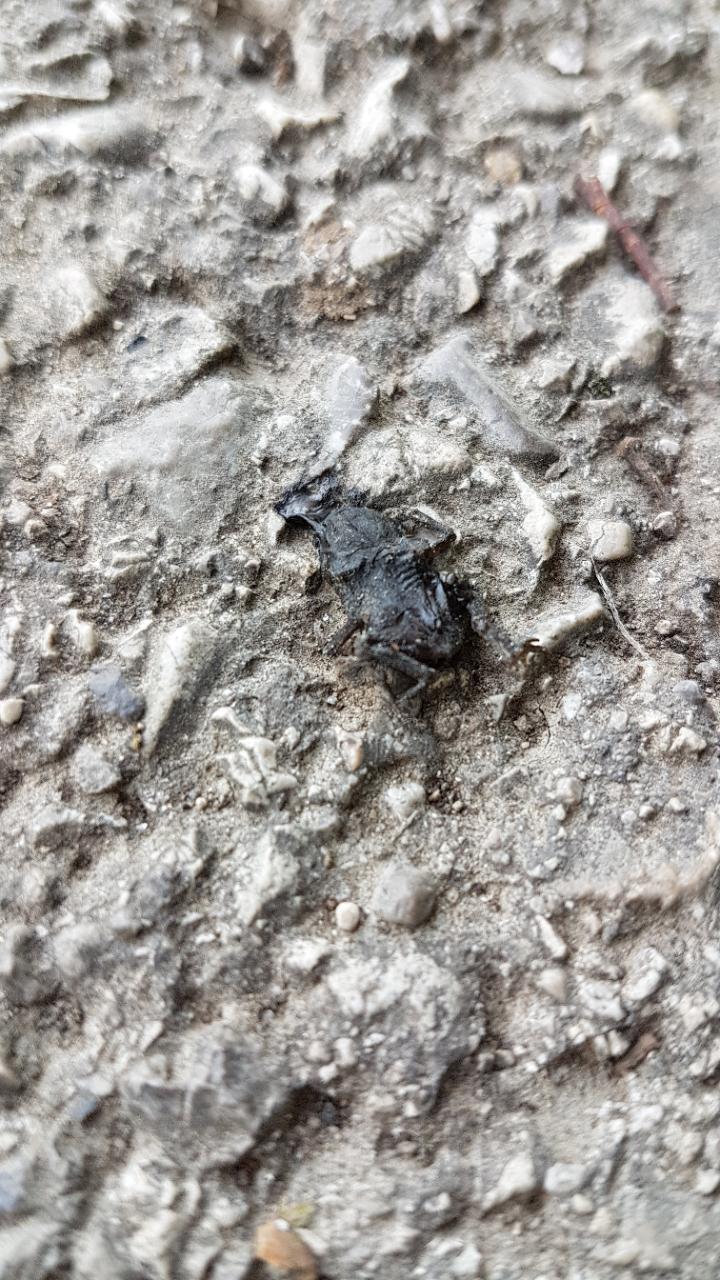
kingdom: Animalia
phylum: Chordata
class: Amphibia
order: Anura
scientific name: Anura
